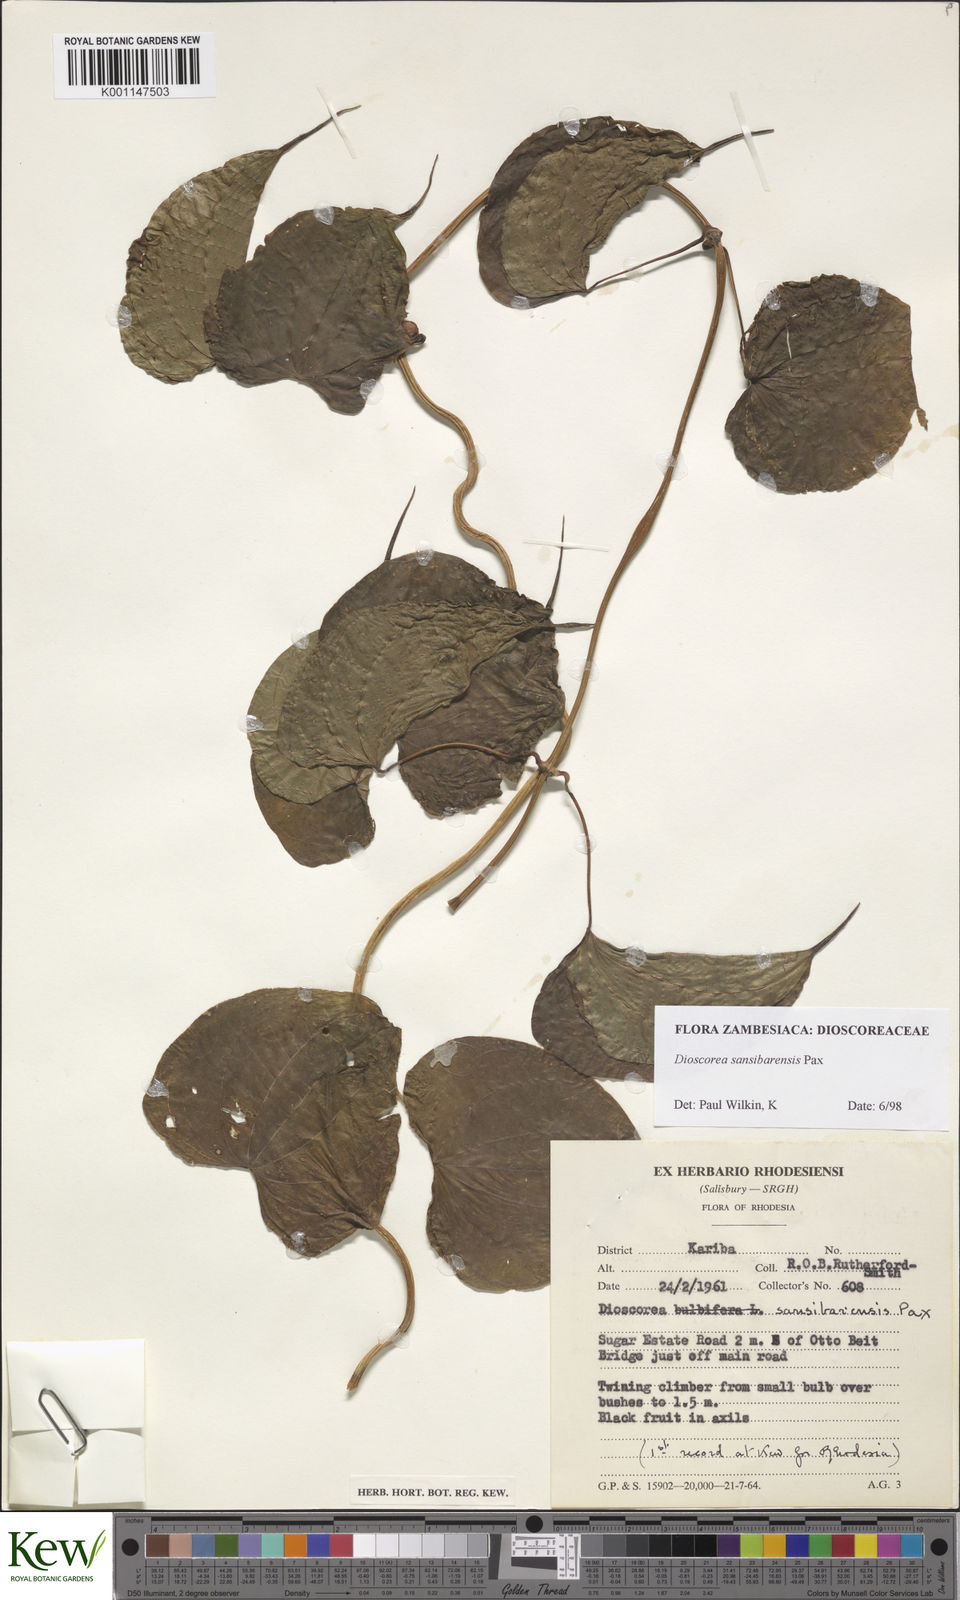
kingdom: Plantae
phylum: Tracheophyta
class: Liliopsida
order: Dioscoreales
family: Dioscoreaceae
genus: Dioscorea
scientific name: Dioscorea sansibarensis
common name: Zanzibar yam
